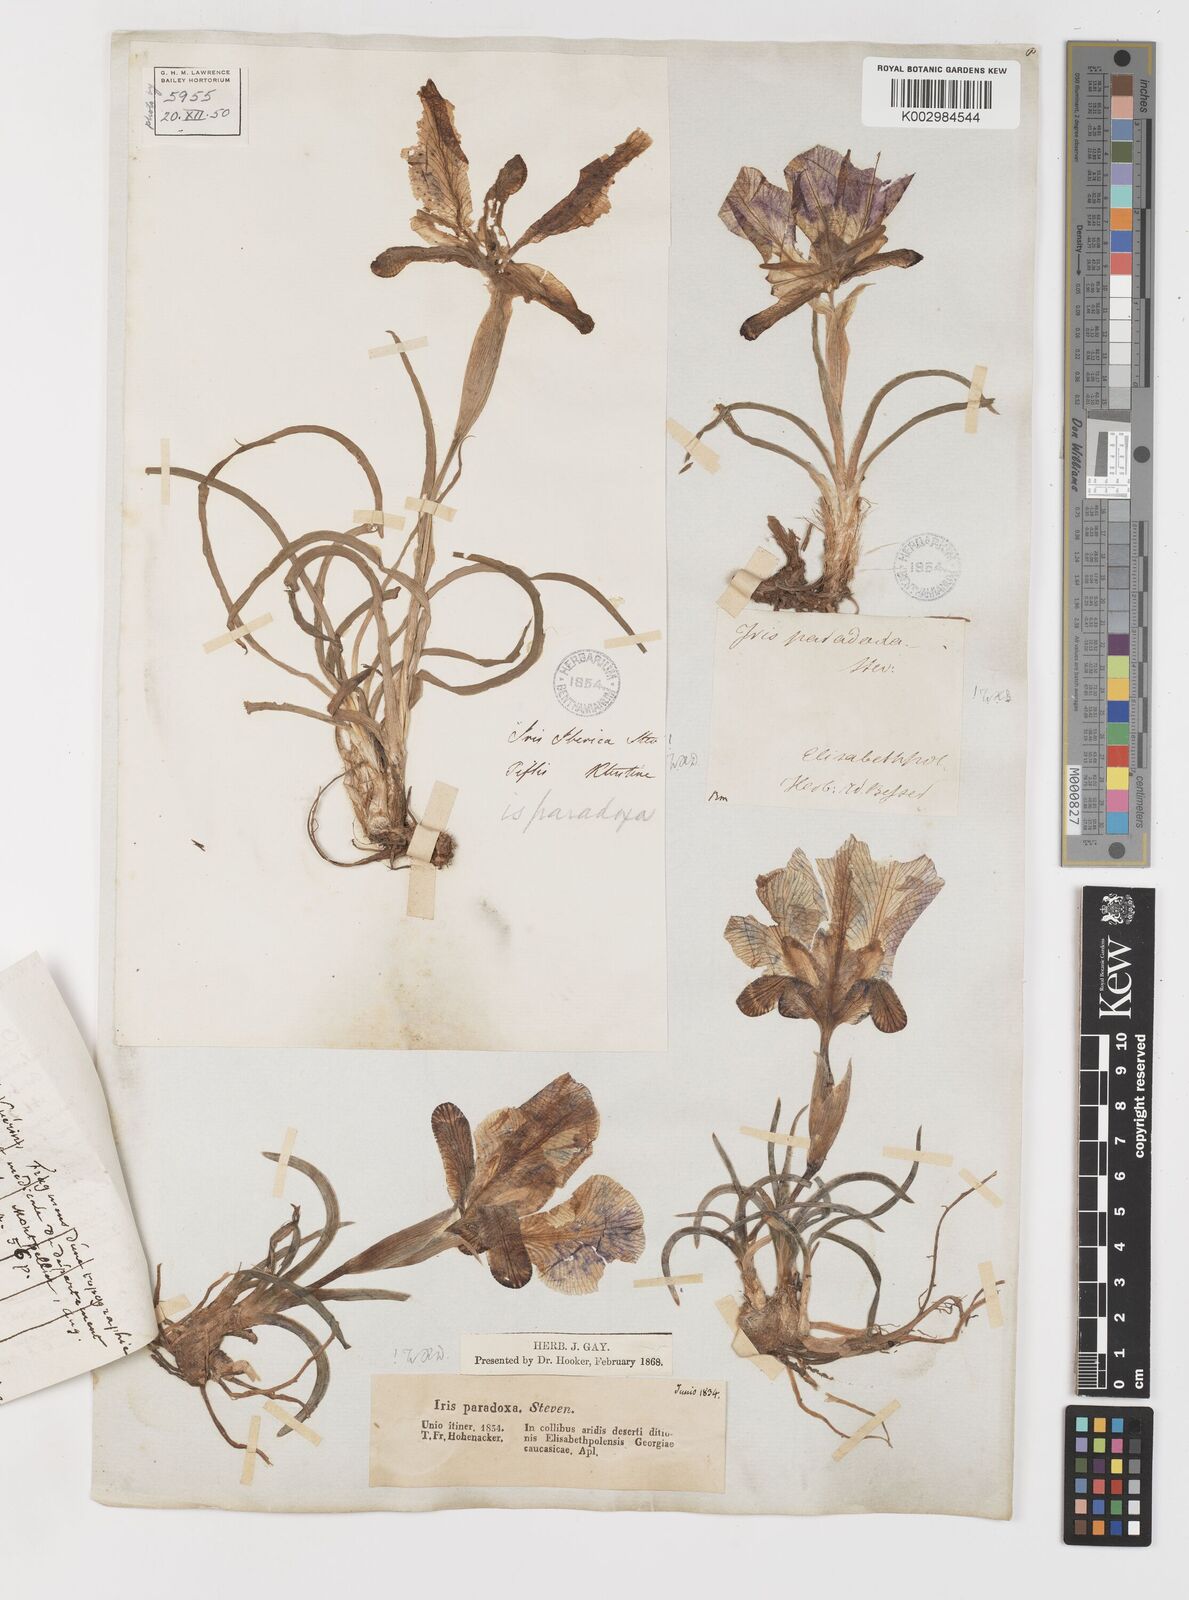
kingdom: Plantae
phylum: Tracheophyta
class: Liliopsida
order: Asparagales
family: Iridaceae
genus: Iris
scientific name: Iris paradoxa
